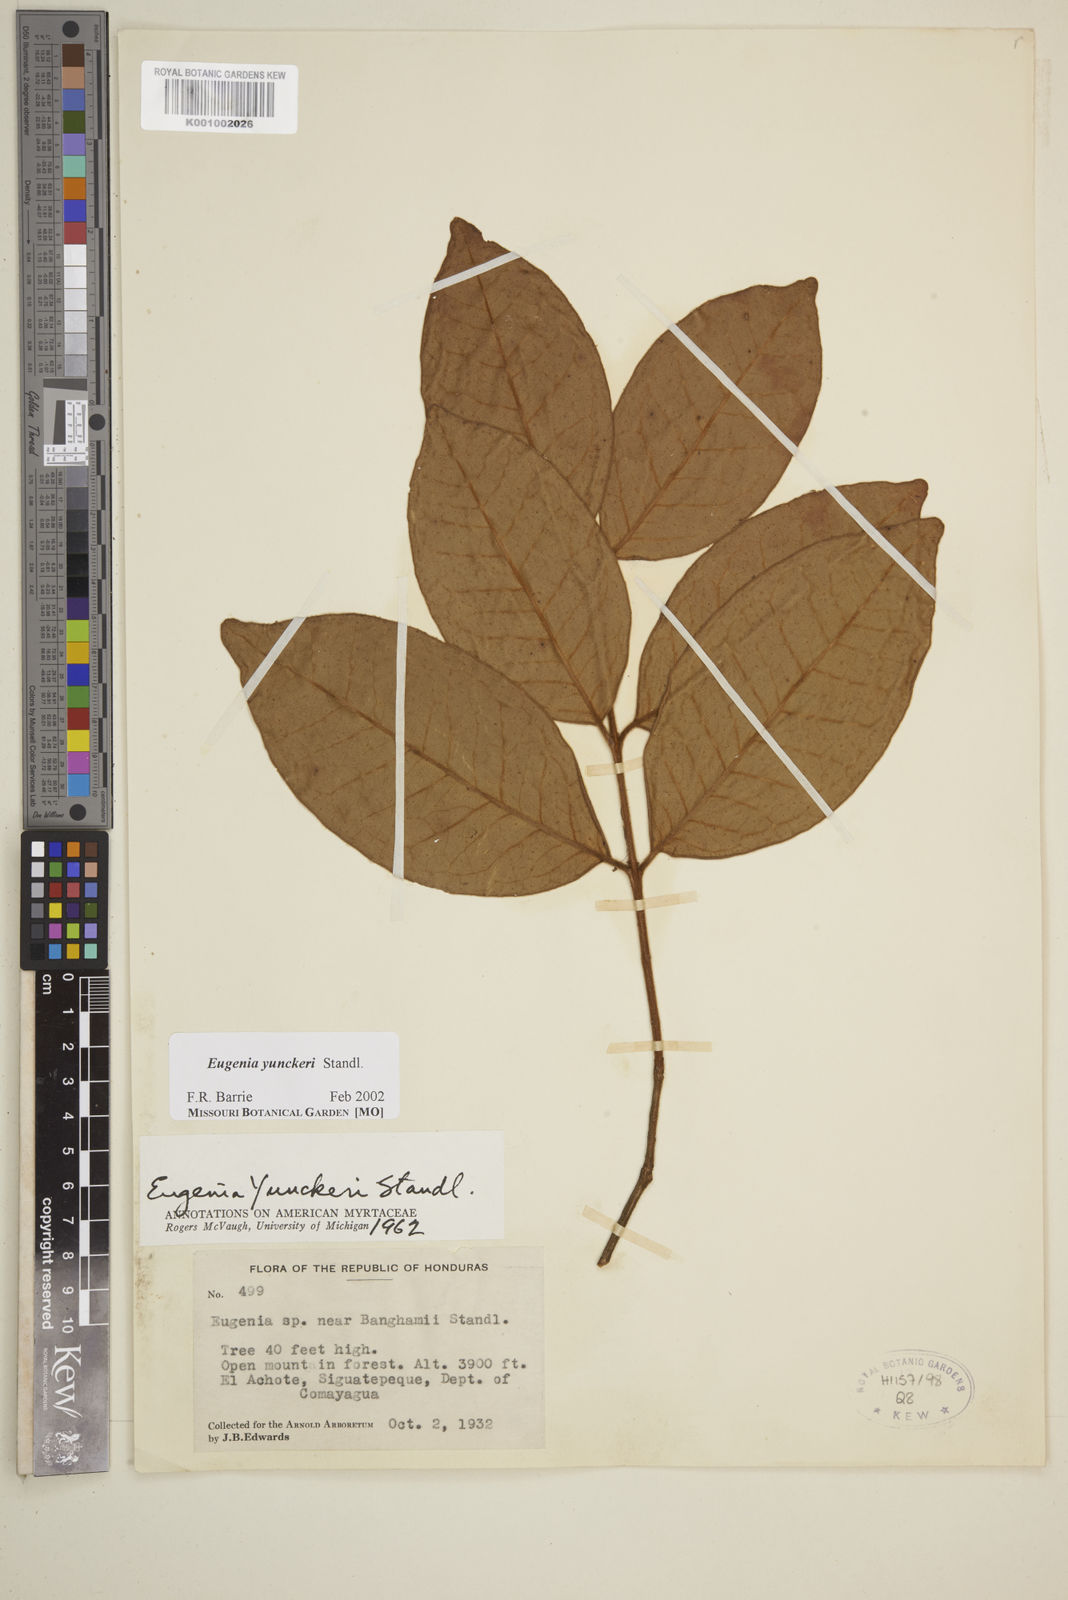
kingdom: Plantae
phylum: Tracheophyta
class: Magnoliopsida
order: Myrtales
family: Myrtaceae
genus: Eugenia
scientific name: Eugenia yunckeri
